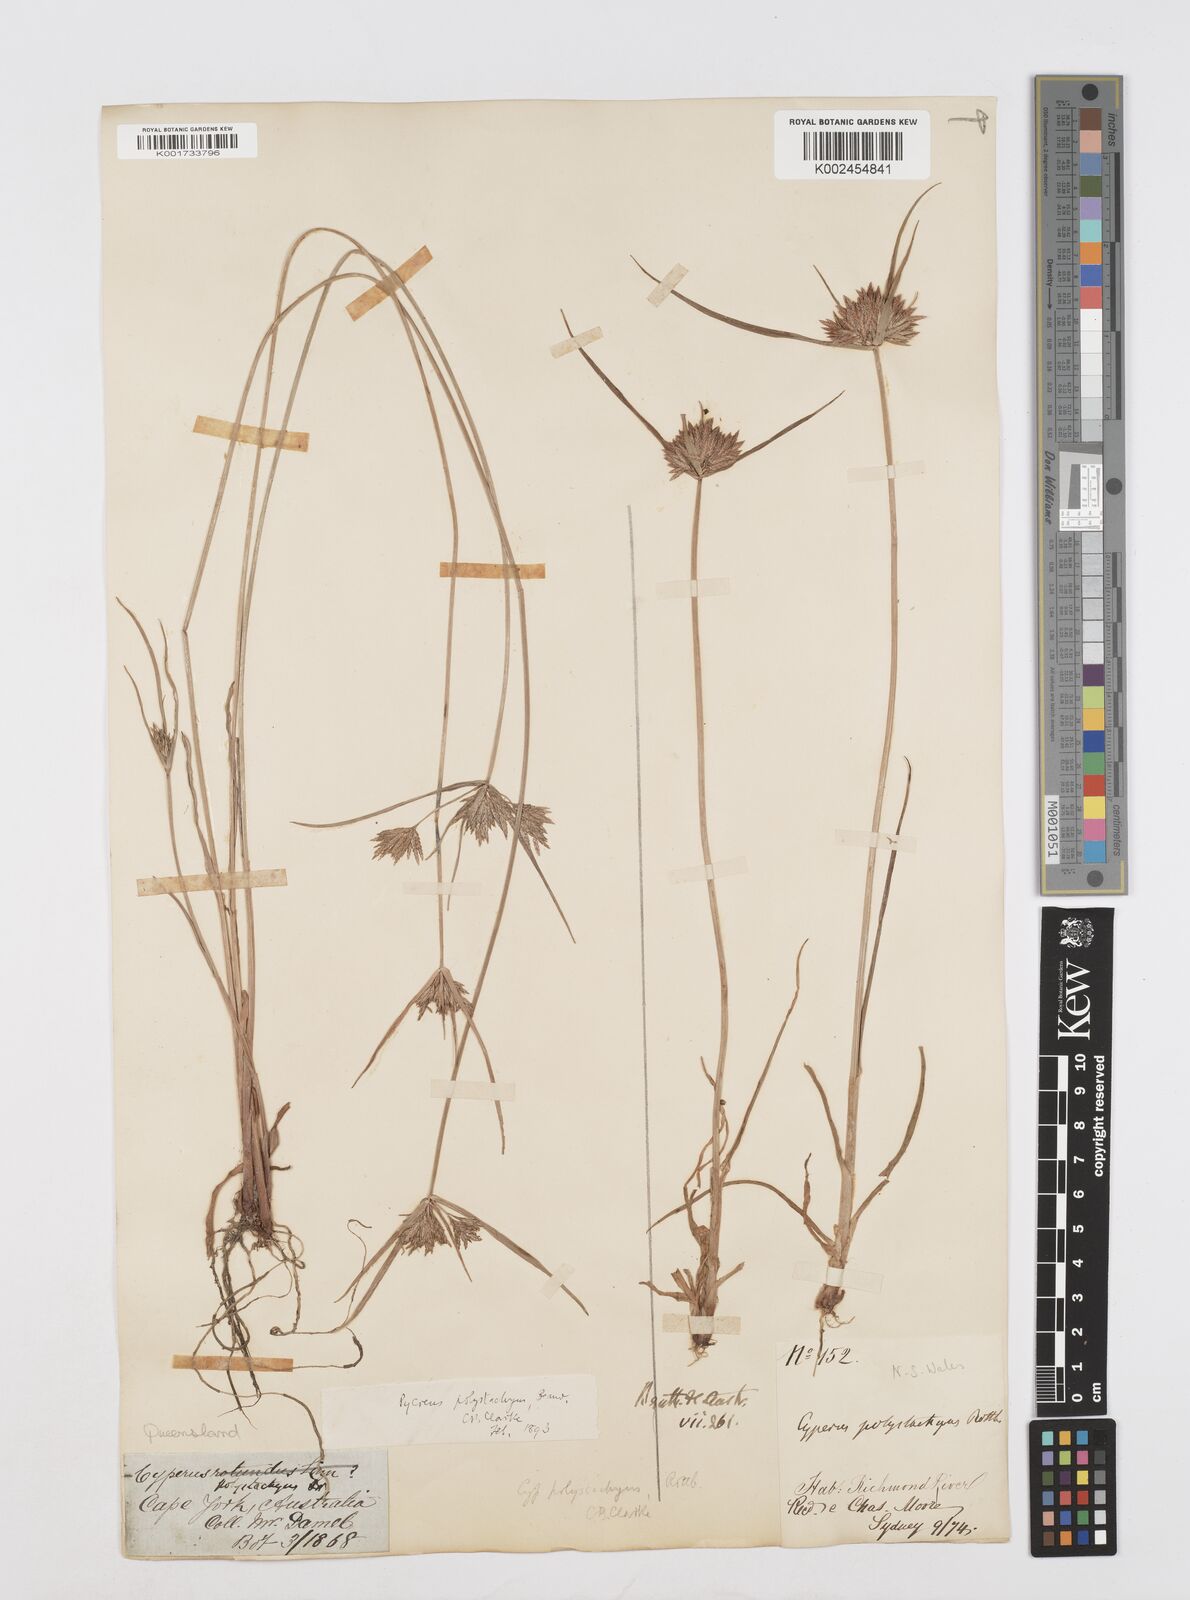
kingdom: Plantae
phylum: Tracheophyta
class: Liliopsida
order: Poales
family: Cyperaceae
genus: Cyperus
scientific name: Cyperus polystachyos
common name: Bunchy flat sedge
